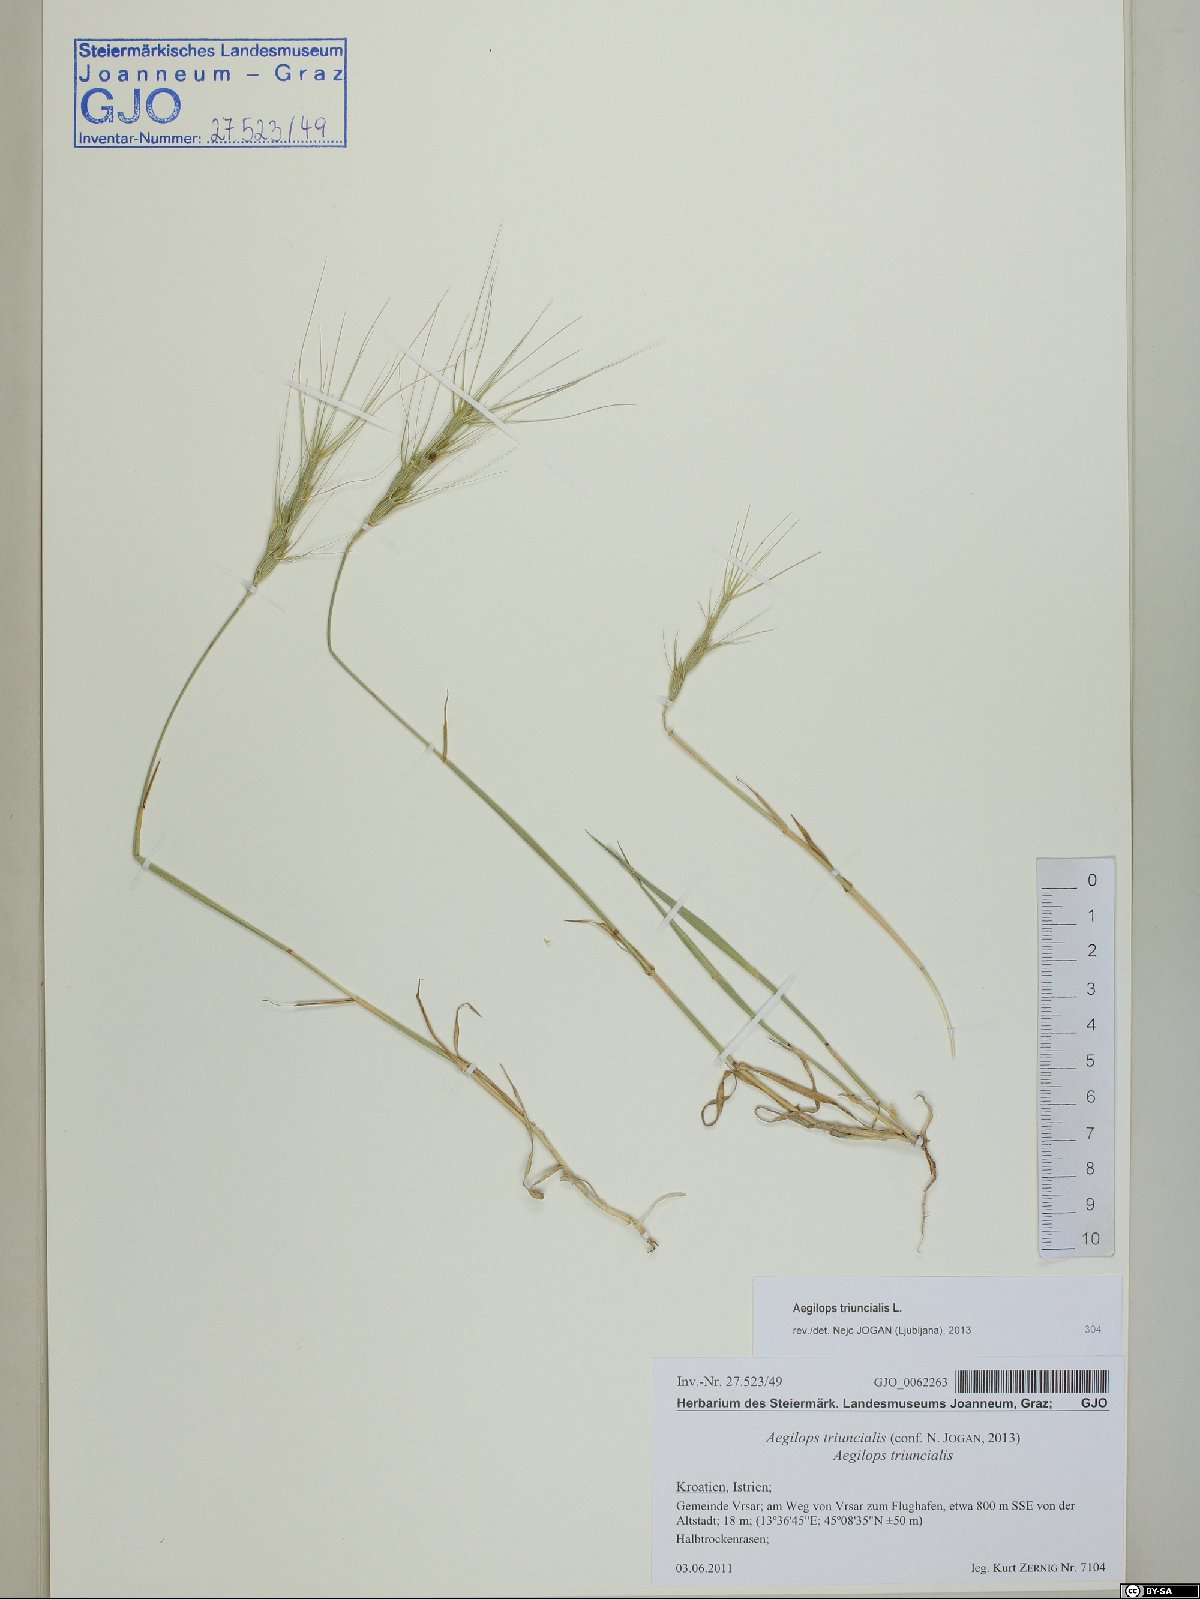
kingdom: Plantae
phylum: Tracheophyta
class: Liliopsida
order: Poales
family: Poaceae
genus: Aegilops
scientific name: Aegilops triuncialis
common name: Barb goat grass
